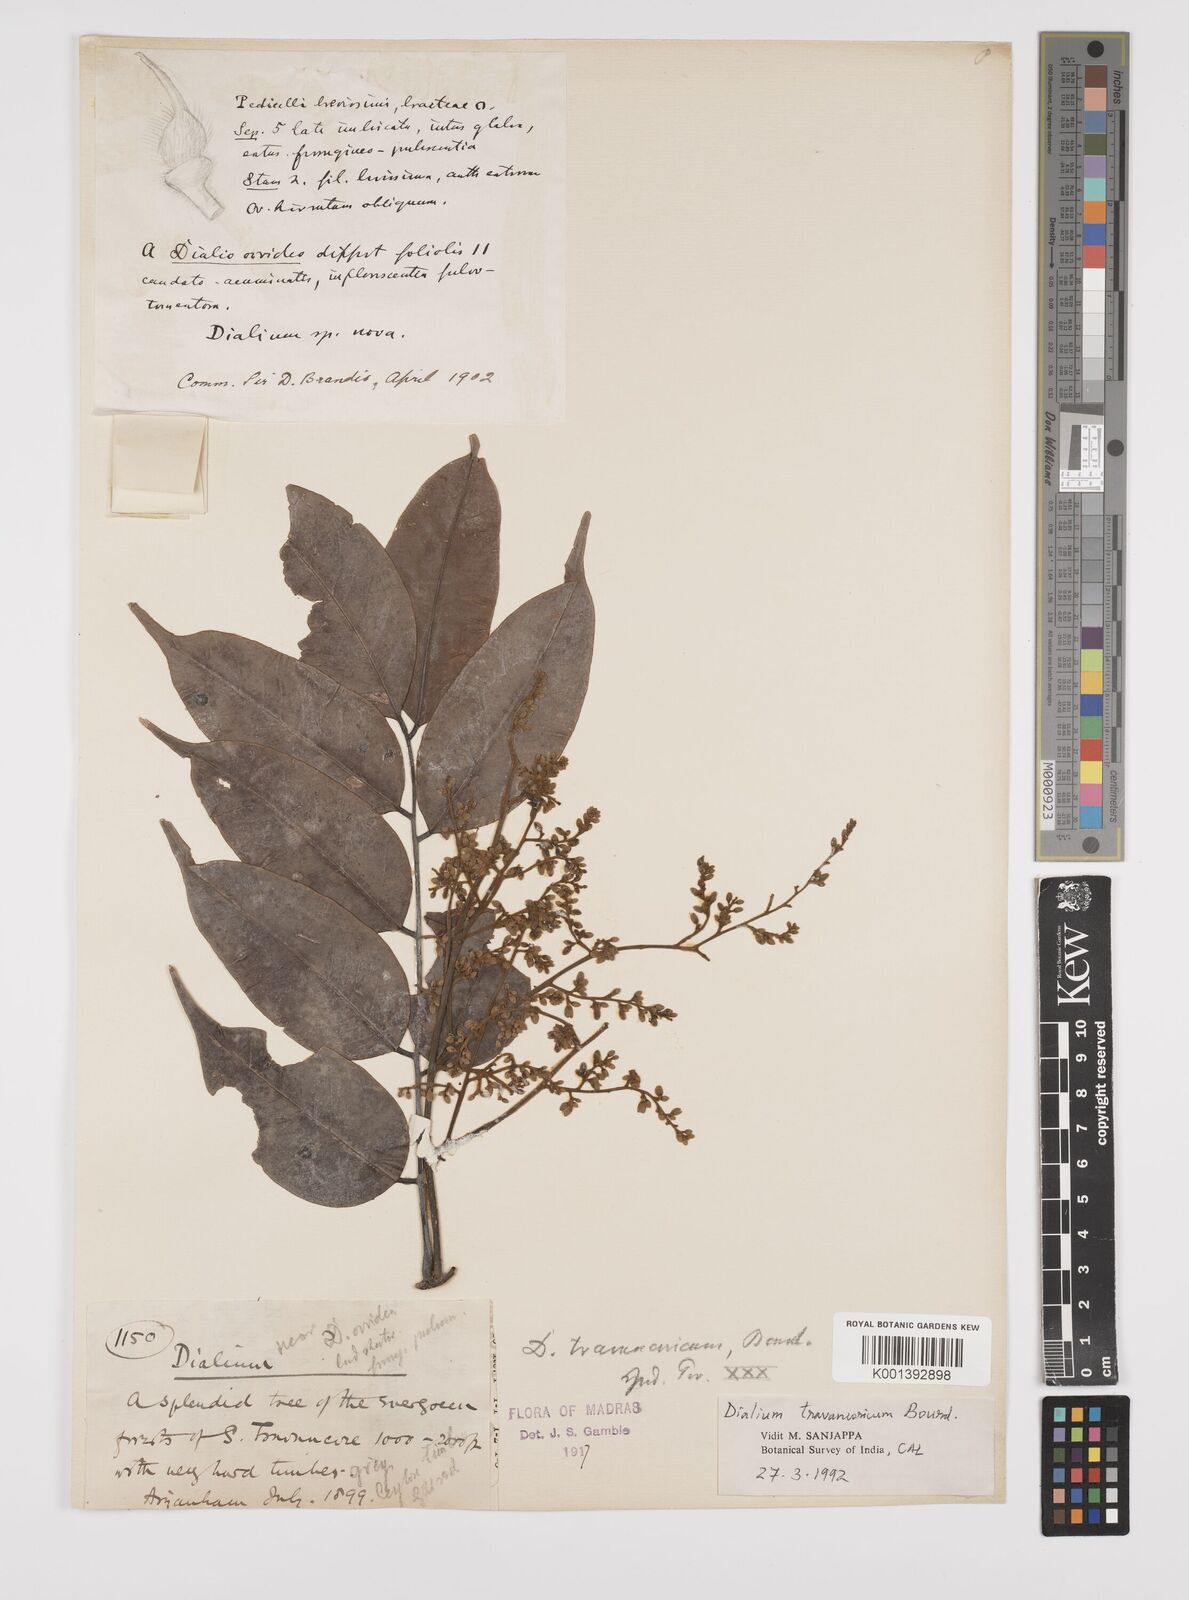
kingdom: Plantae
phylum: Tracheophyta
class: Magnoliopsida
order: Fabales
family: Fabaceae
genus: Dialium
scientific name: Dialium travancoricum
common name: Hill tamarind
